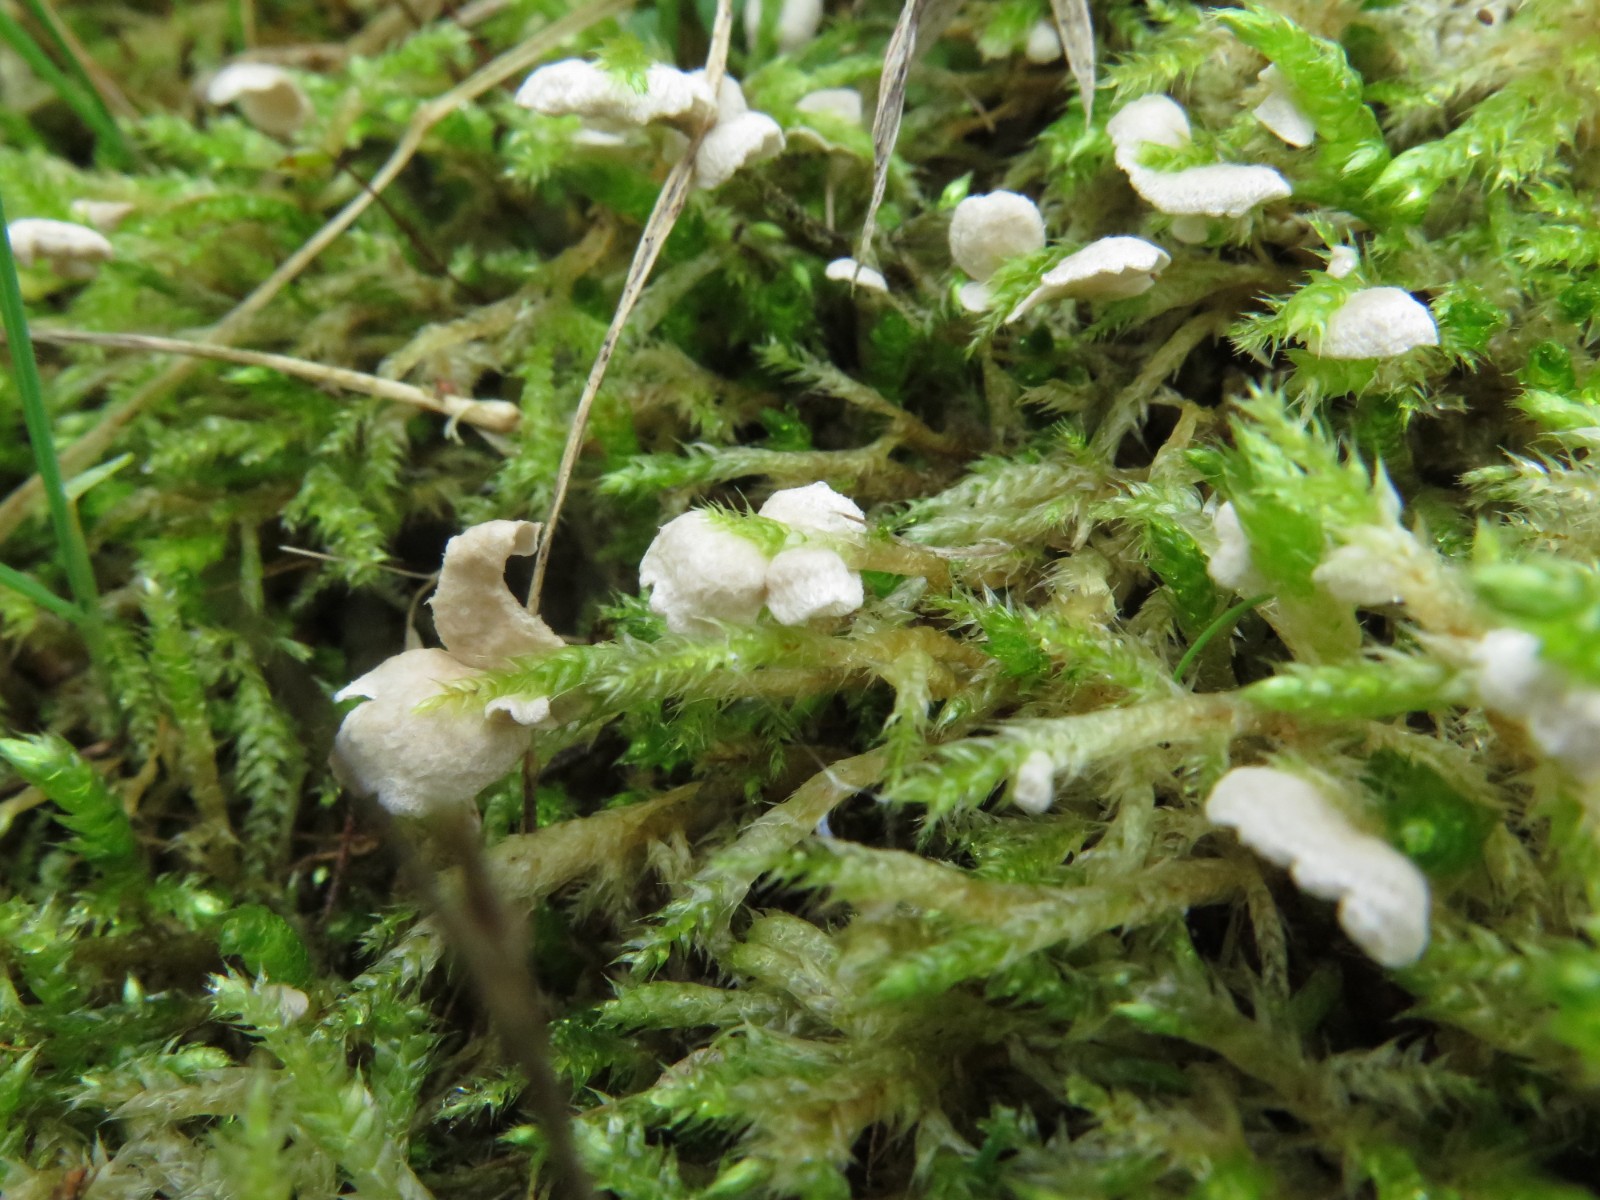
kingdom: Fungi
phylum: Basidiomycota
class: Agaricomycetes
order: Agaricales
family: Hygrophoraceae
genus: Arrhenia
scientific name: Arrhenia retiruga
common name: lille fontænehat
